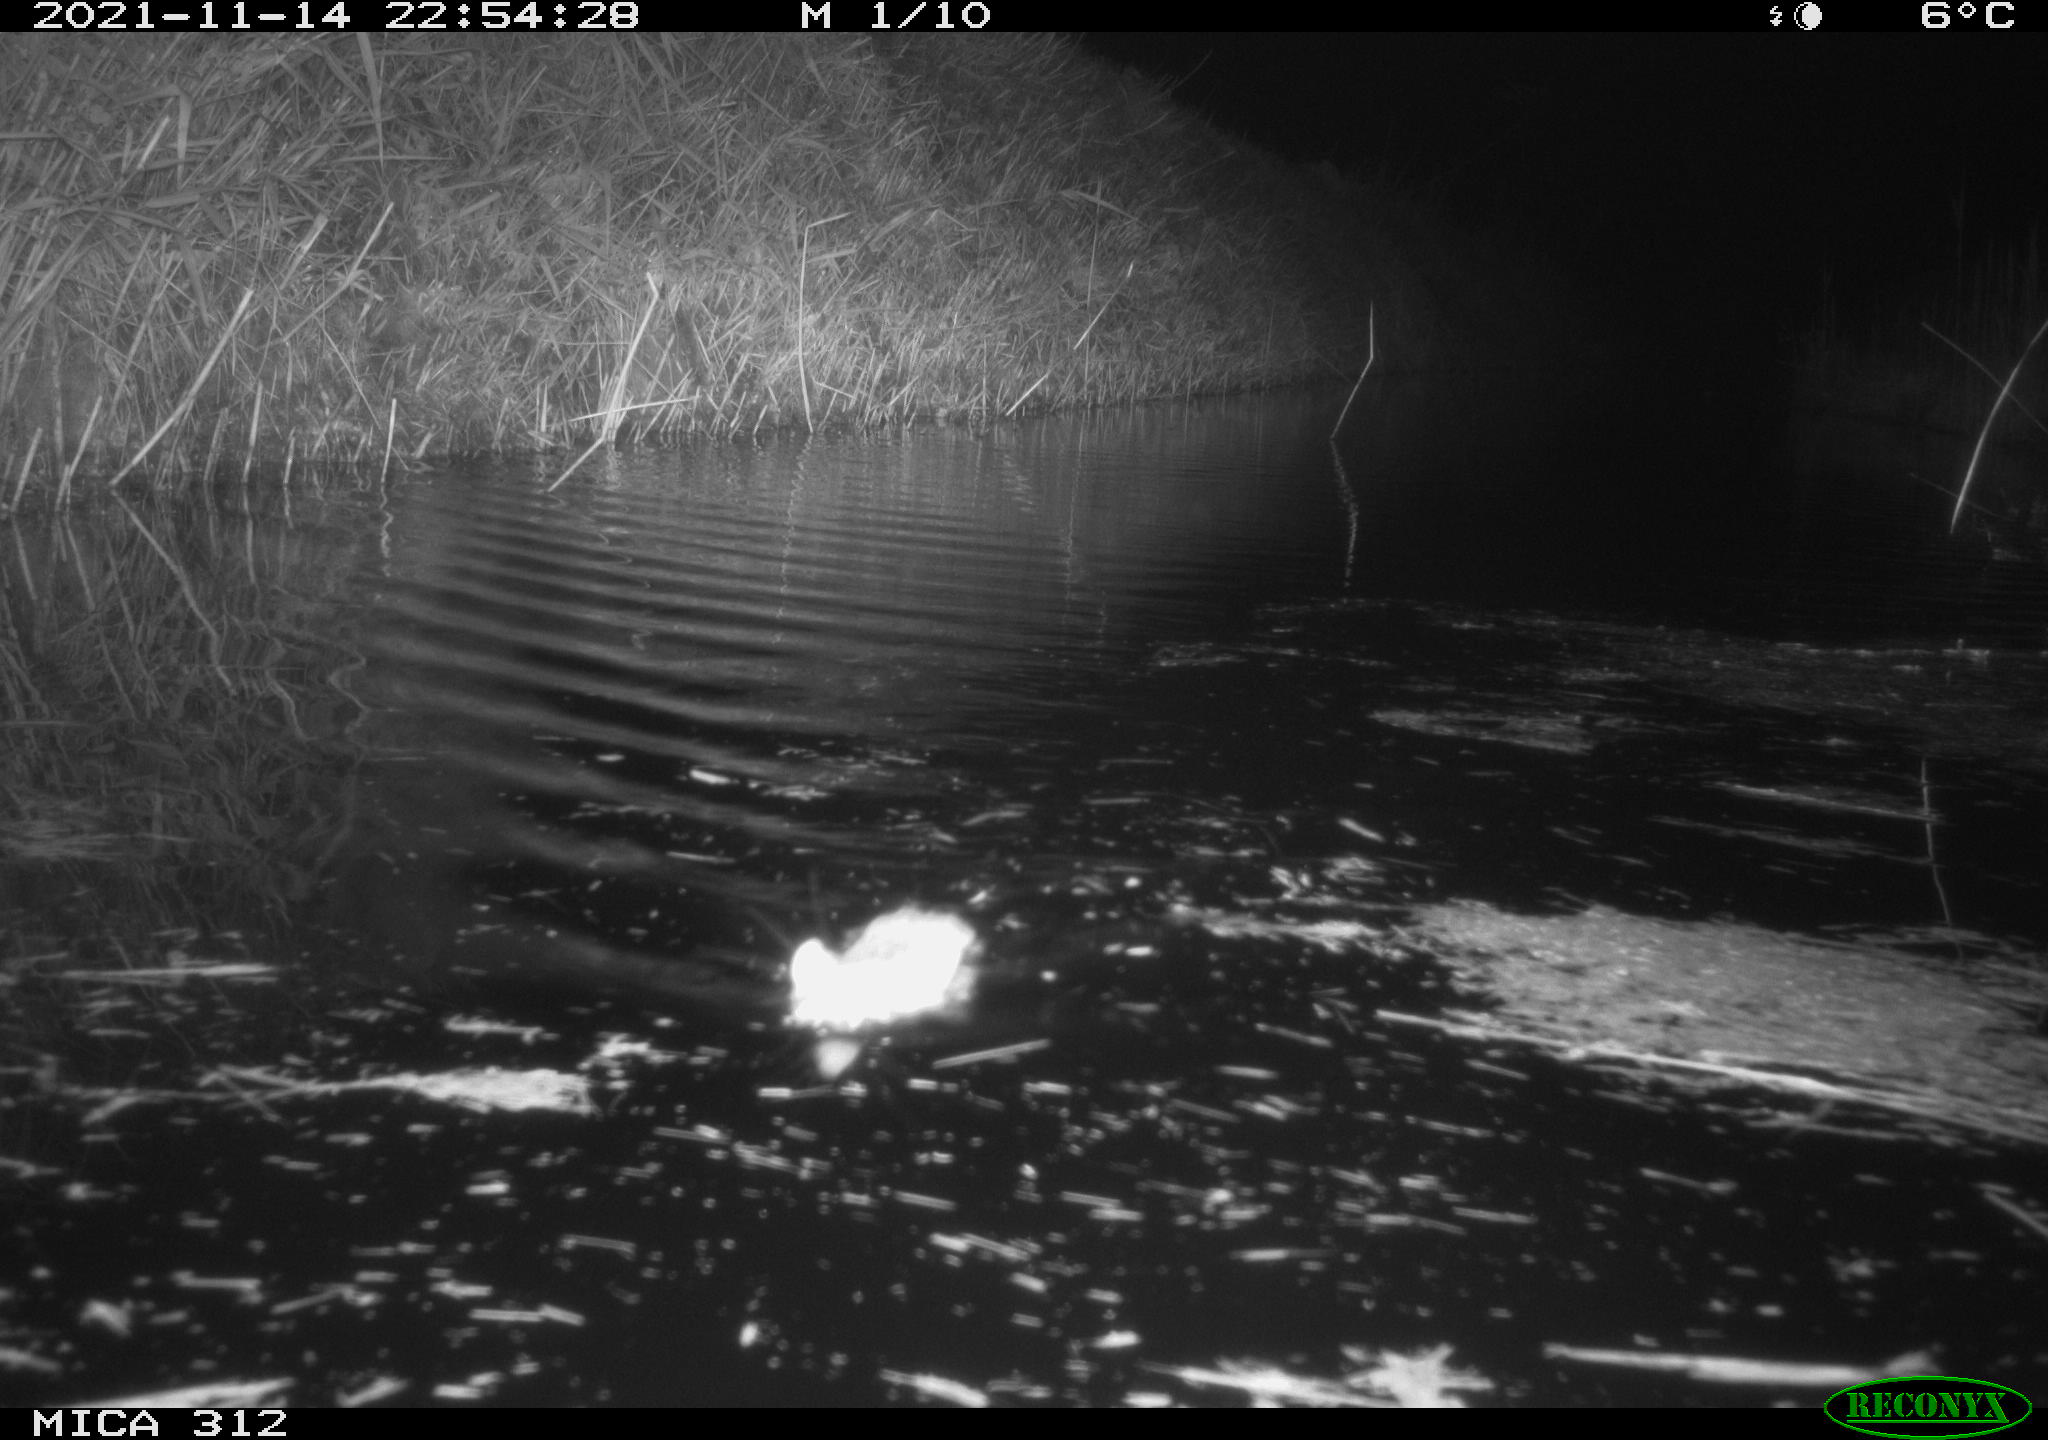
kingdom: Animalia
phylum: Chordata
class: Mammalia
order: Rodentia
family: Muridae
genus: Rattus
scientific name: Rattus norvegicus
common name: Brown rat
